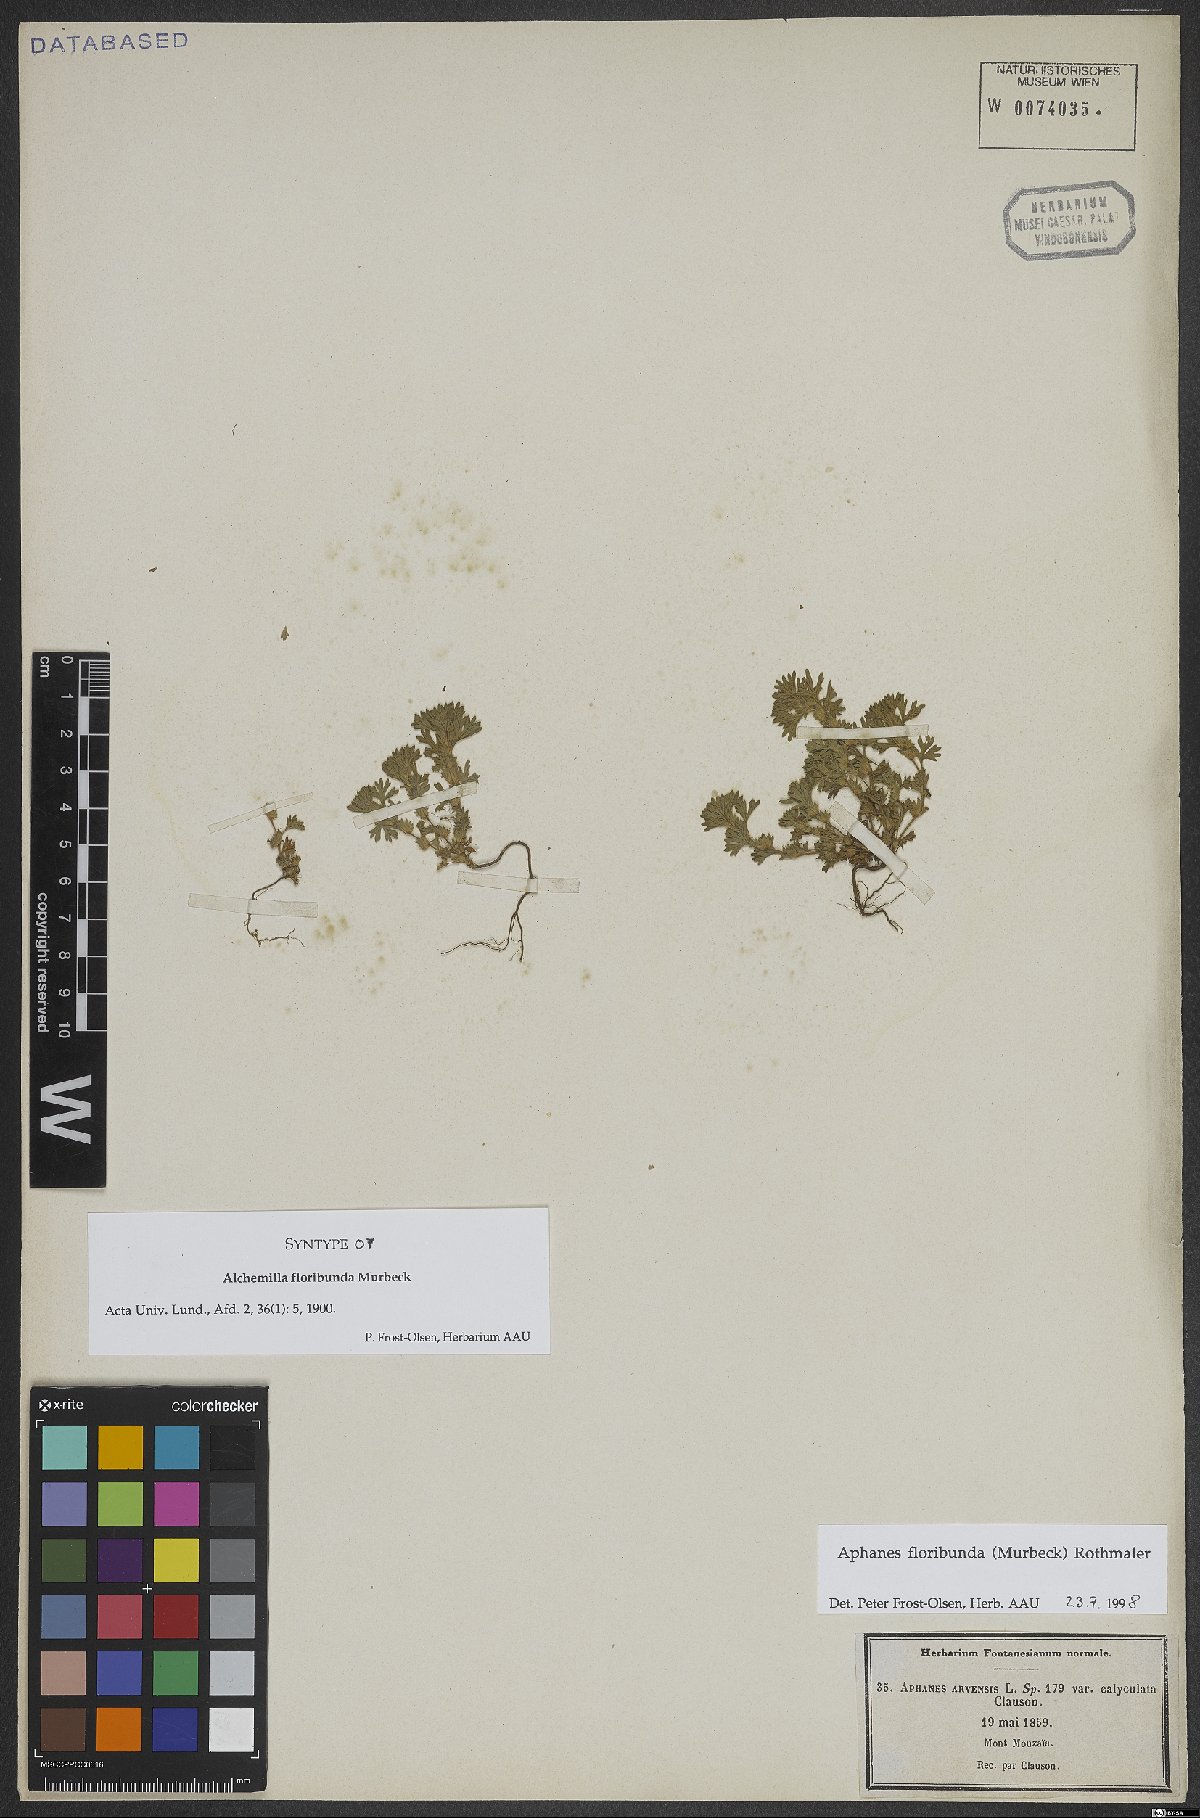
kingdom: Plantae
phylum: Tracheophyta
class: Magnoliopsida
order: Rosales
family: Rosaceae
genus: Aphanes
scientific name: Aphanes floribunda
